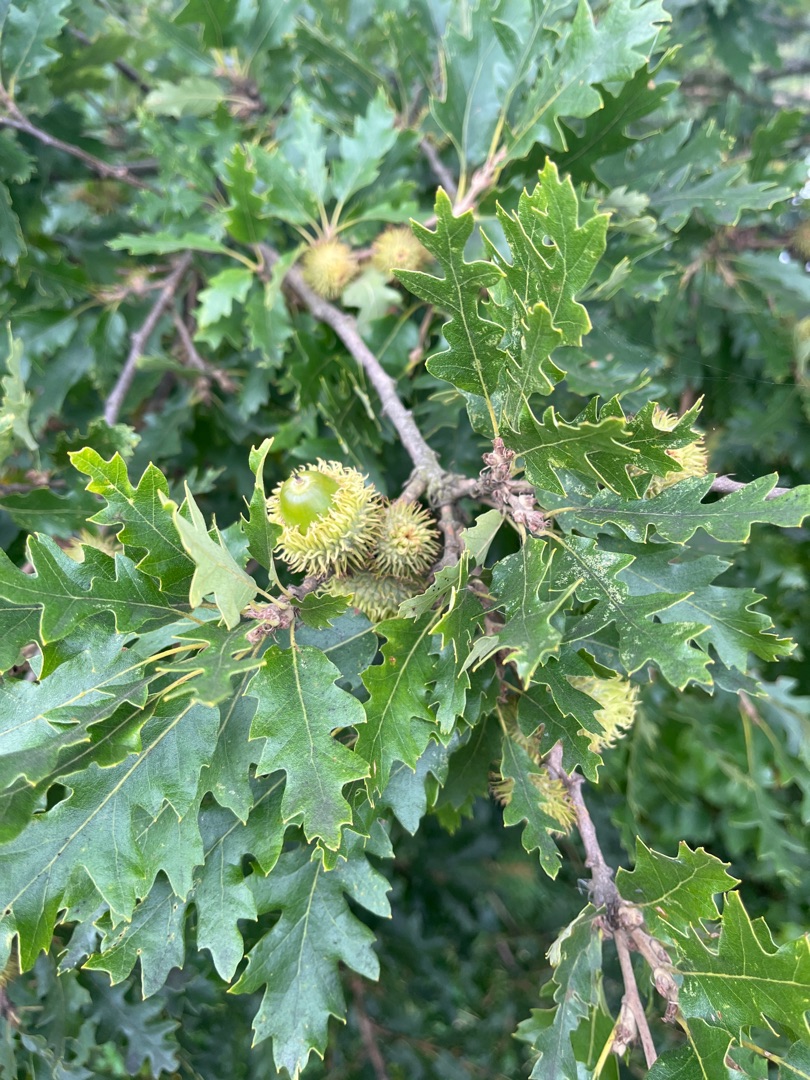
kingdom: Plantae
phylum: Tracheophyta
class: Magnoliopsida
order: Fagales
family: Fagaceae
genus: Quercus
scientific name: Quercus cerris
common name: Frynse-eg
